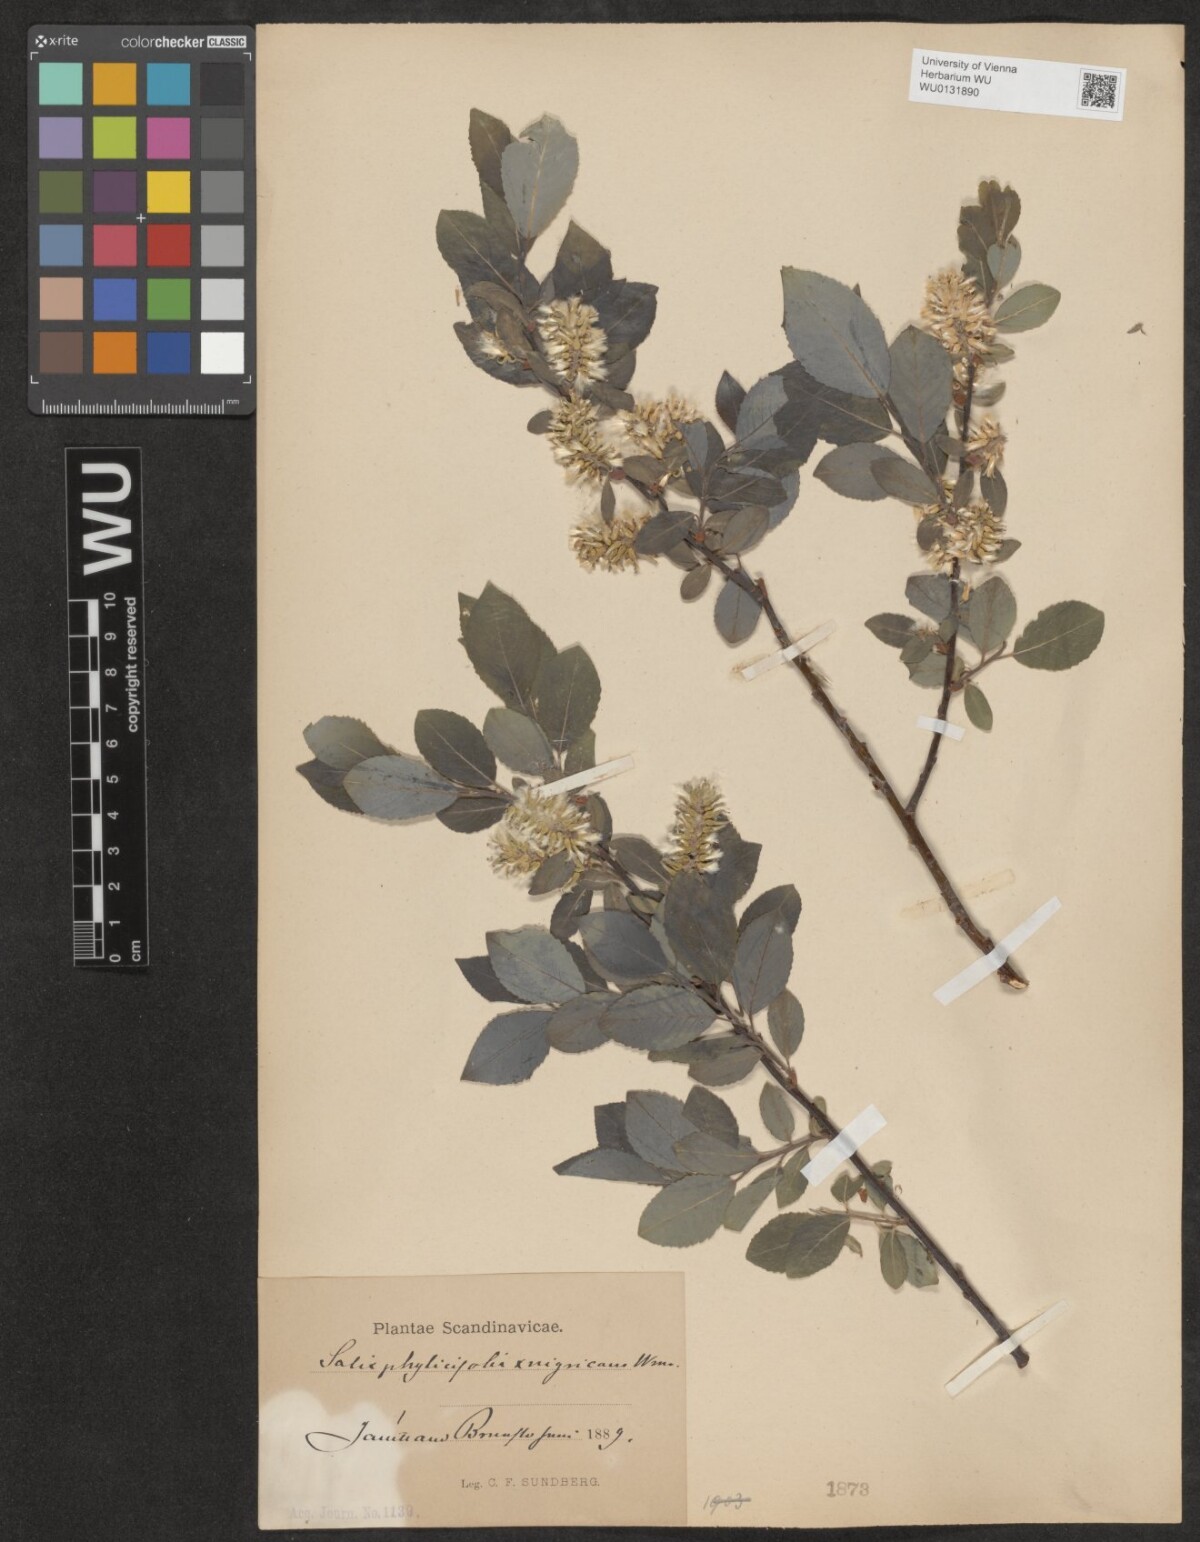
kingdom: Plantae
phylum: Tracheophyta
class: Magnoliopsida
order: Malpighiales
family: Salicaceae
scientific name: Salicaceae
